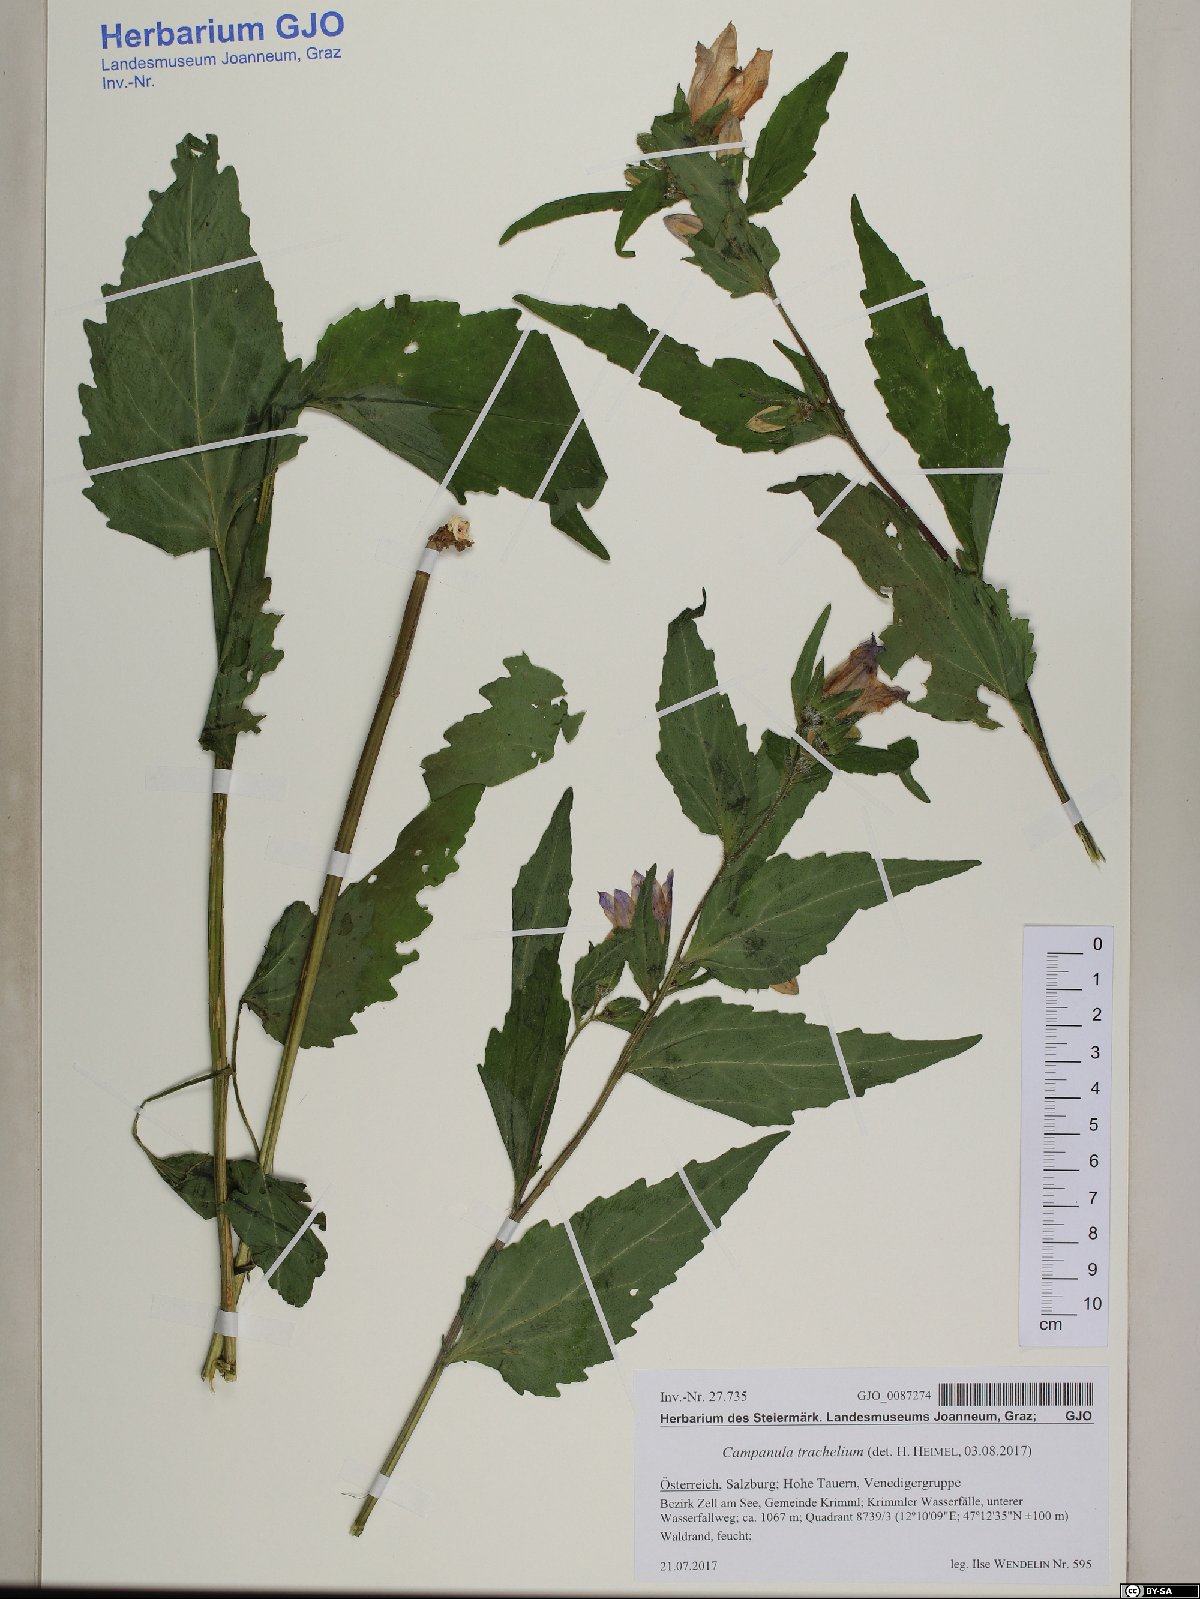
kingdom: Plantae
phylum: Tracheophyta
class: Magnoliopsida
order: Asterales
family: Campanulaceae
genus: Campanula
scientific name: Campanula trachelium
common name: Nettle-leaved bellflower
